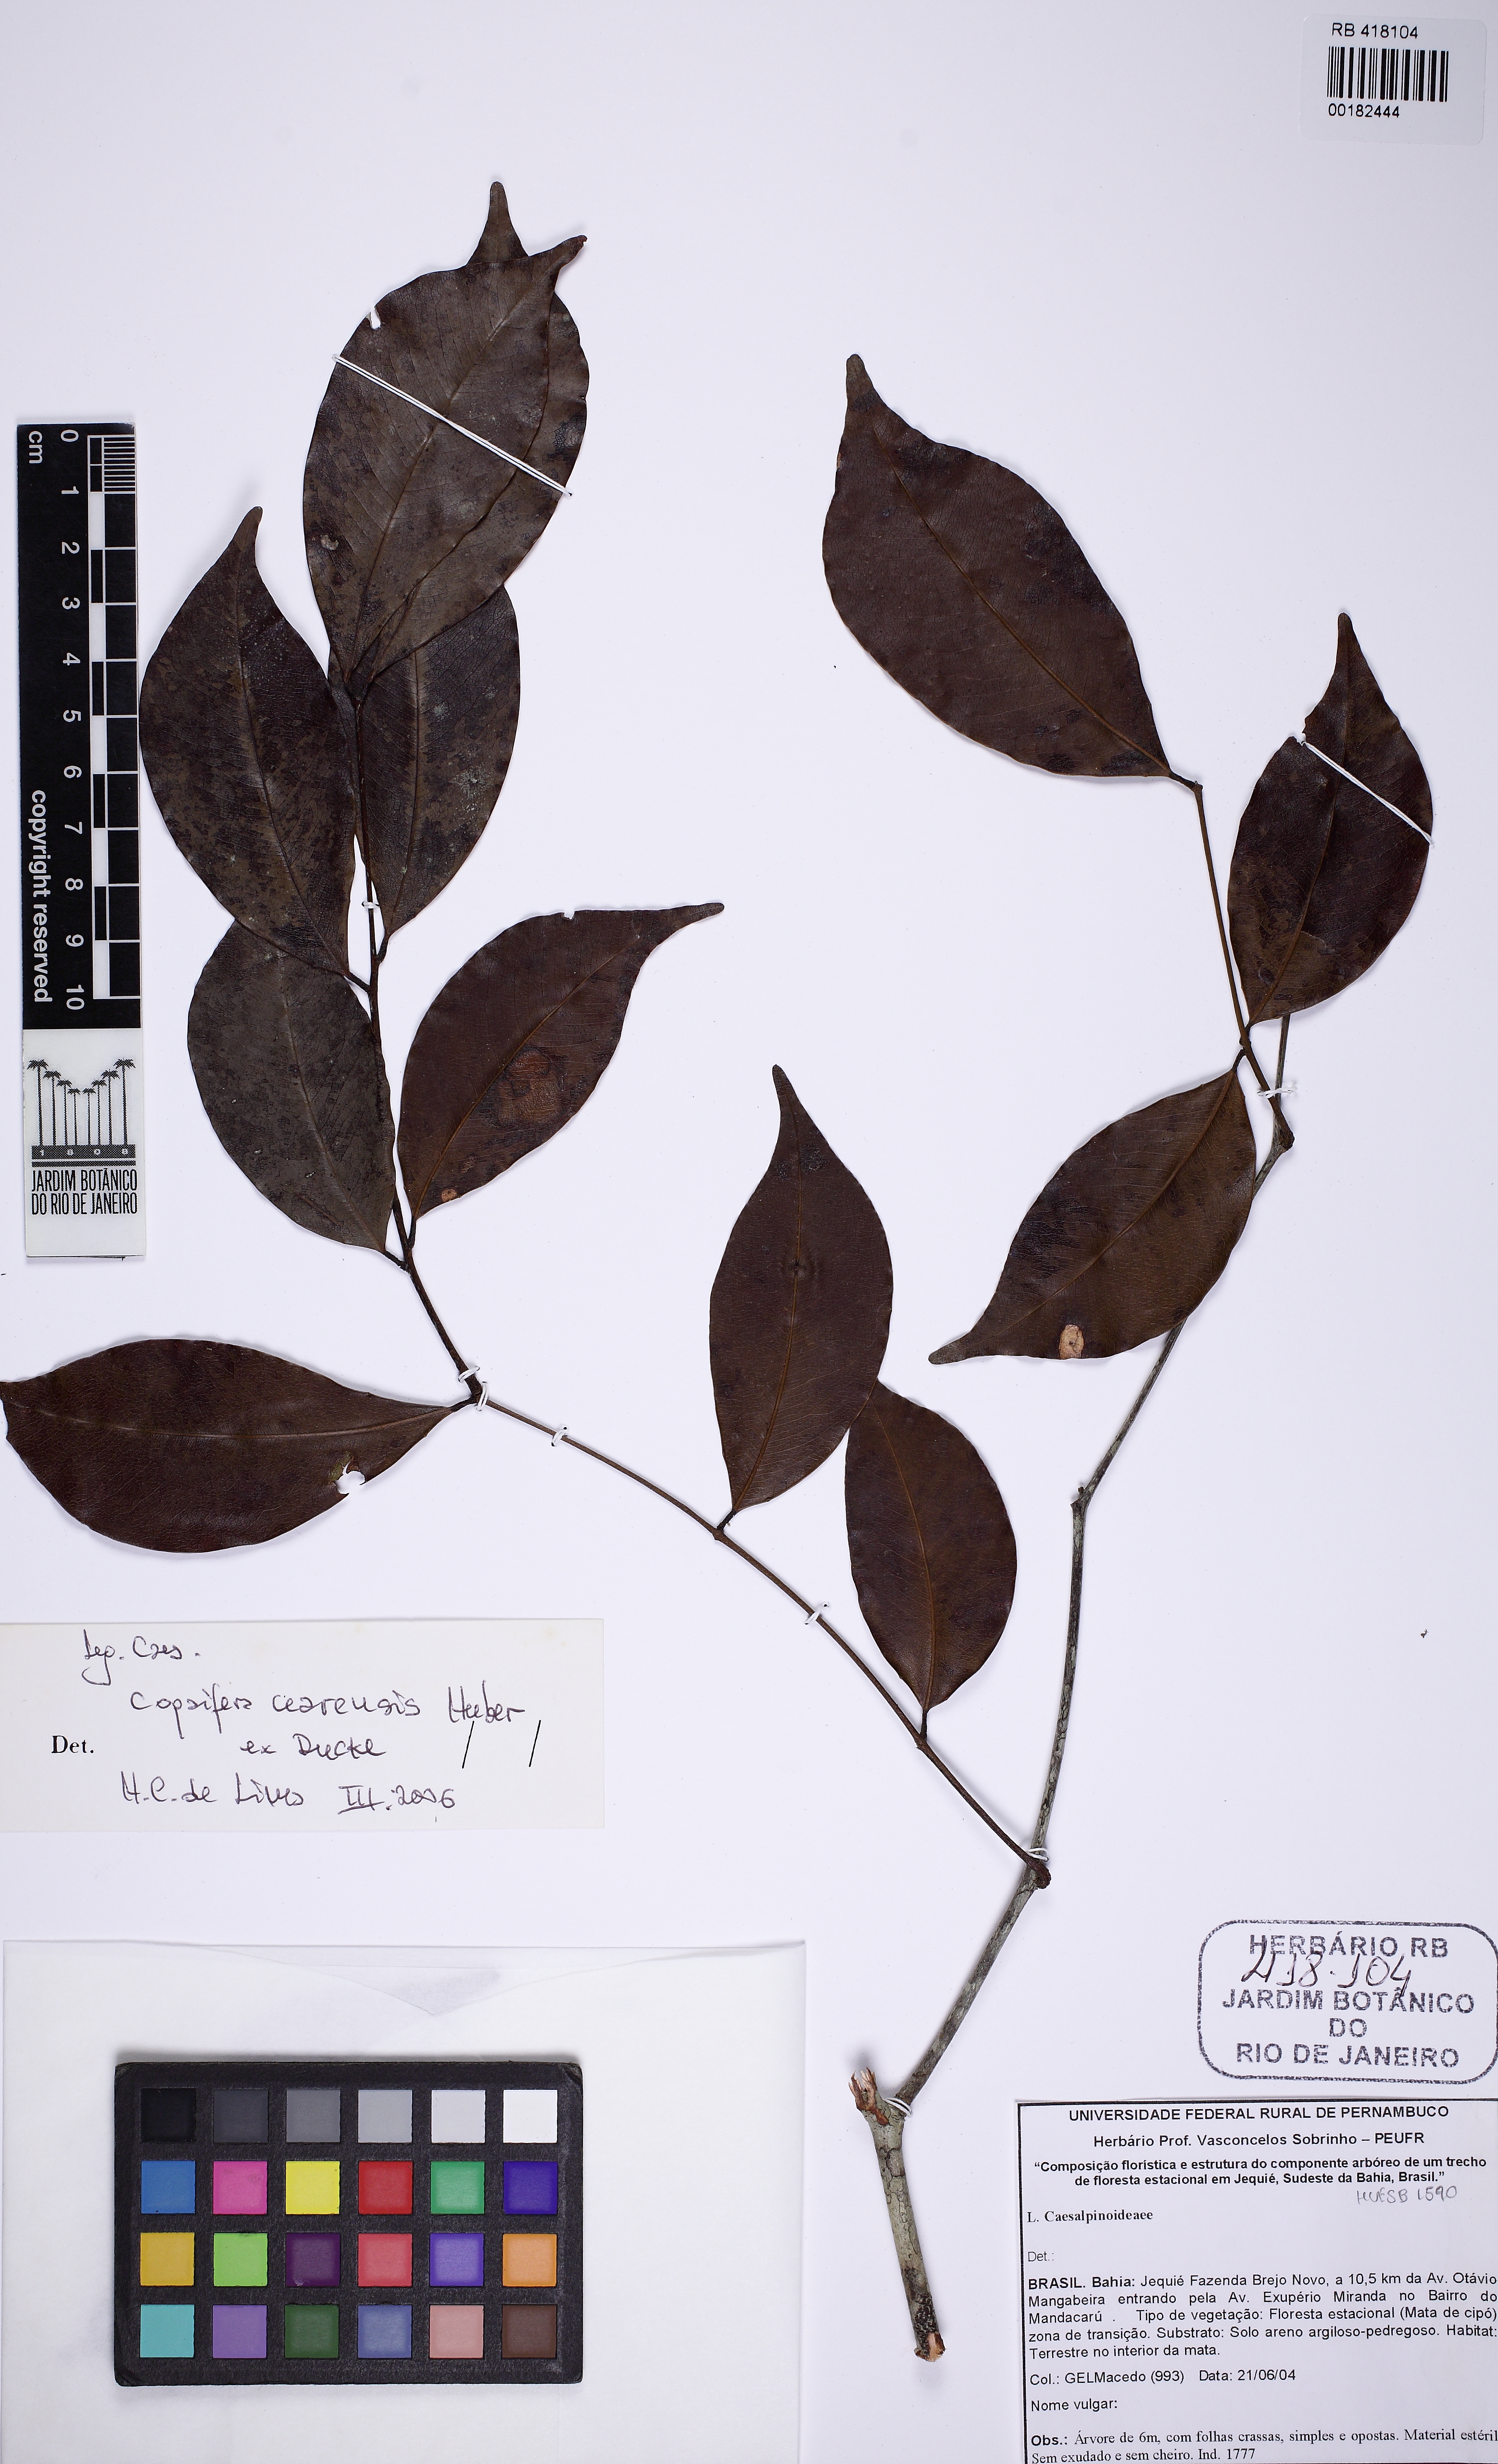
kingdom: Plantae
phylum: Tracheophyta
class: Magnoliopsida
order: Fabales
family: Fabaceae
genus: Copaifera
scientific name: Copaifera duckei
